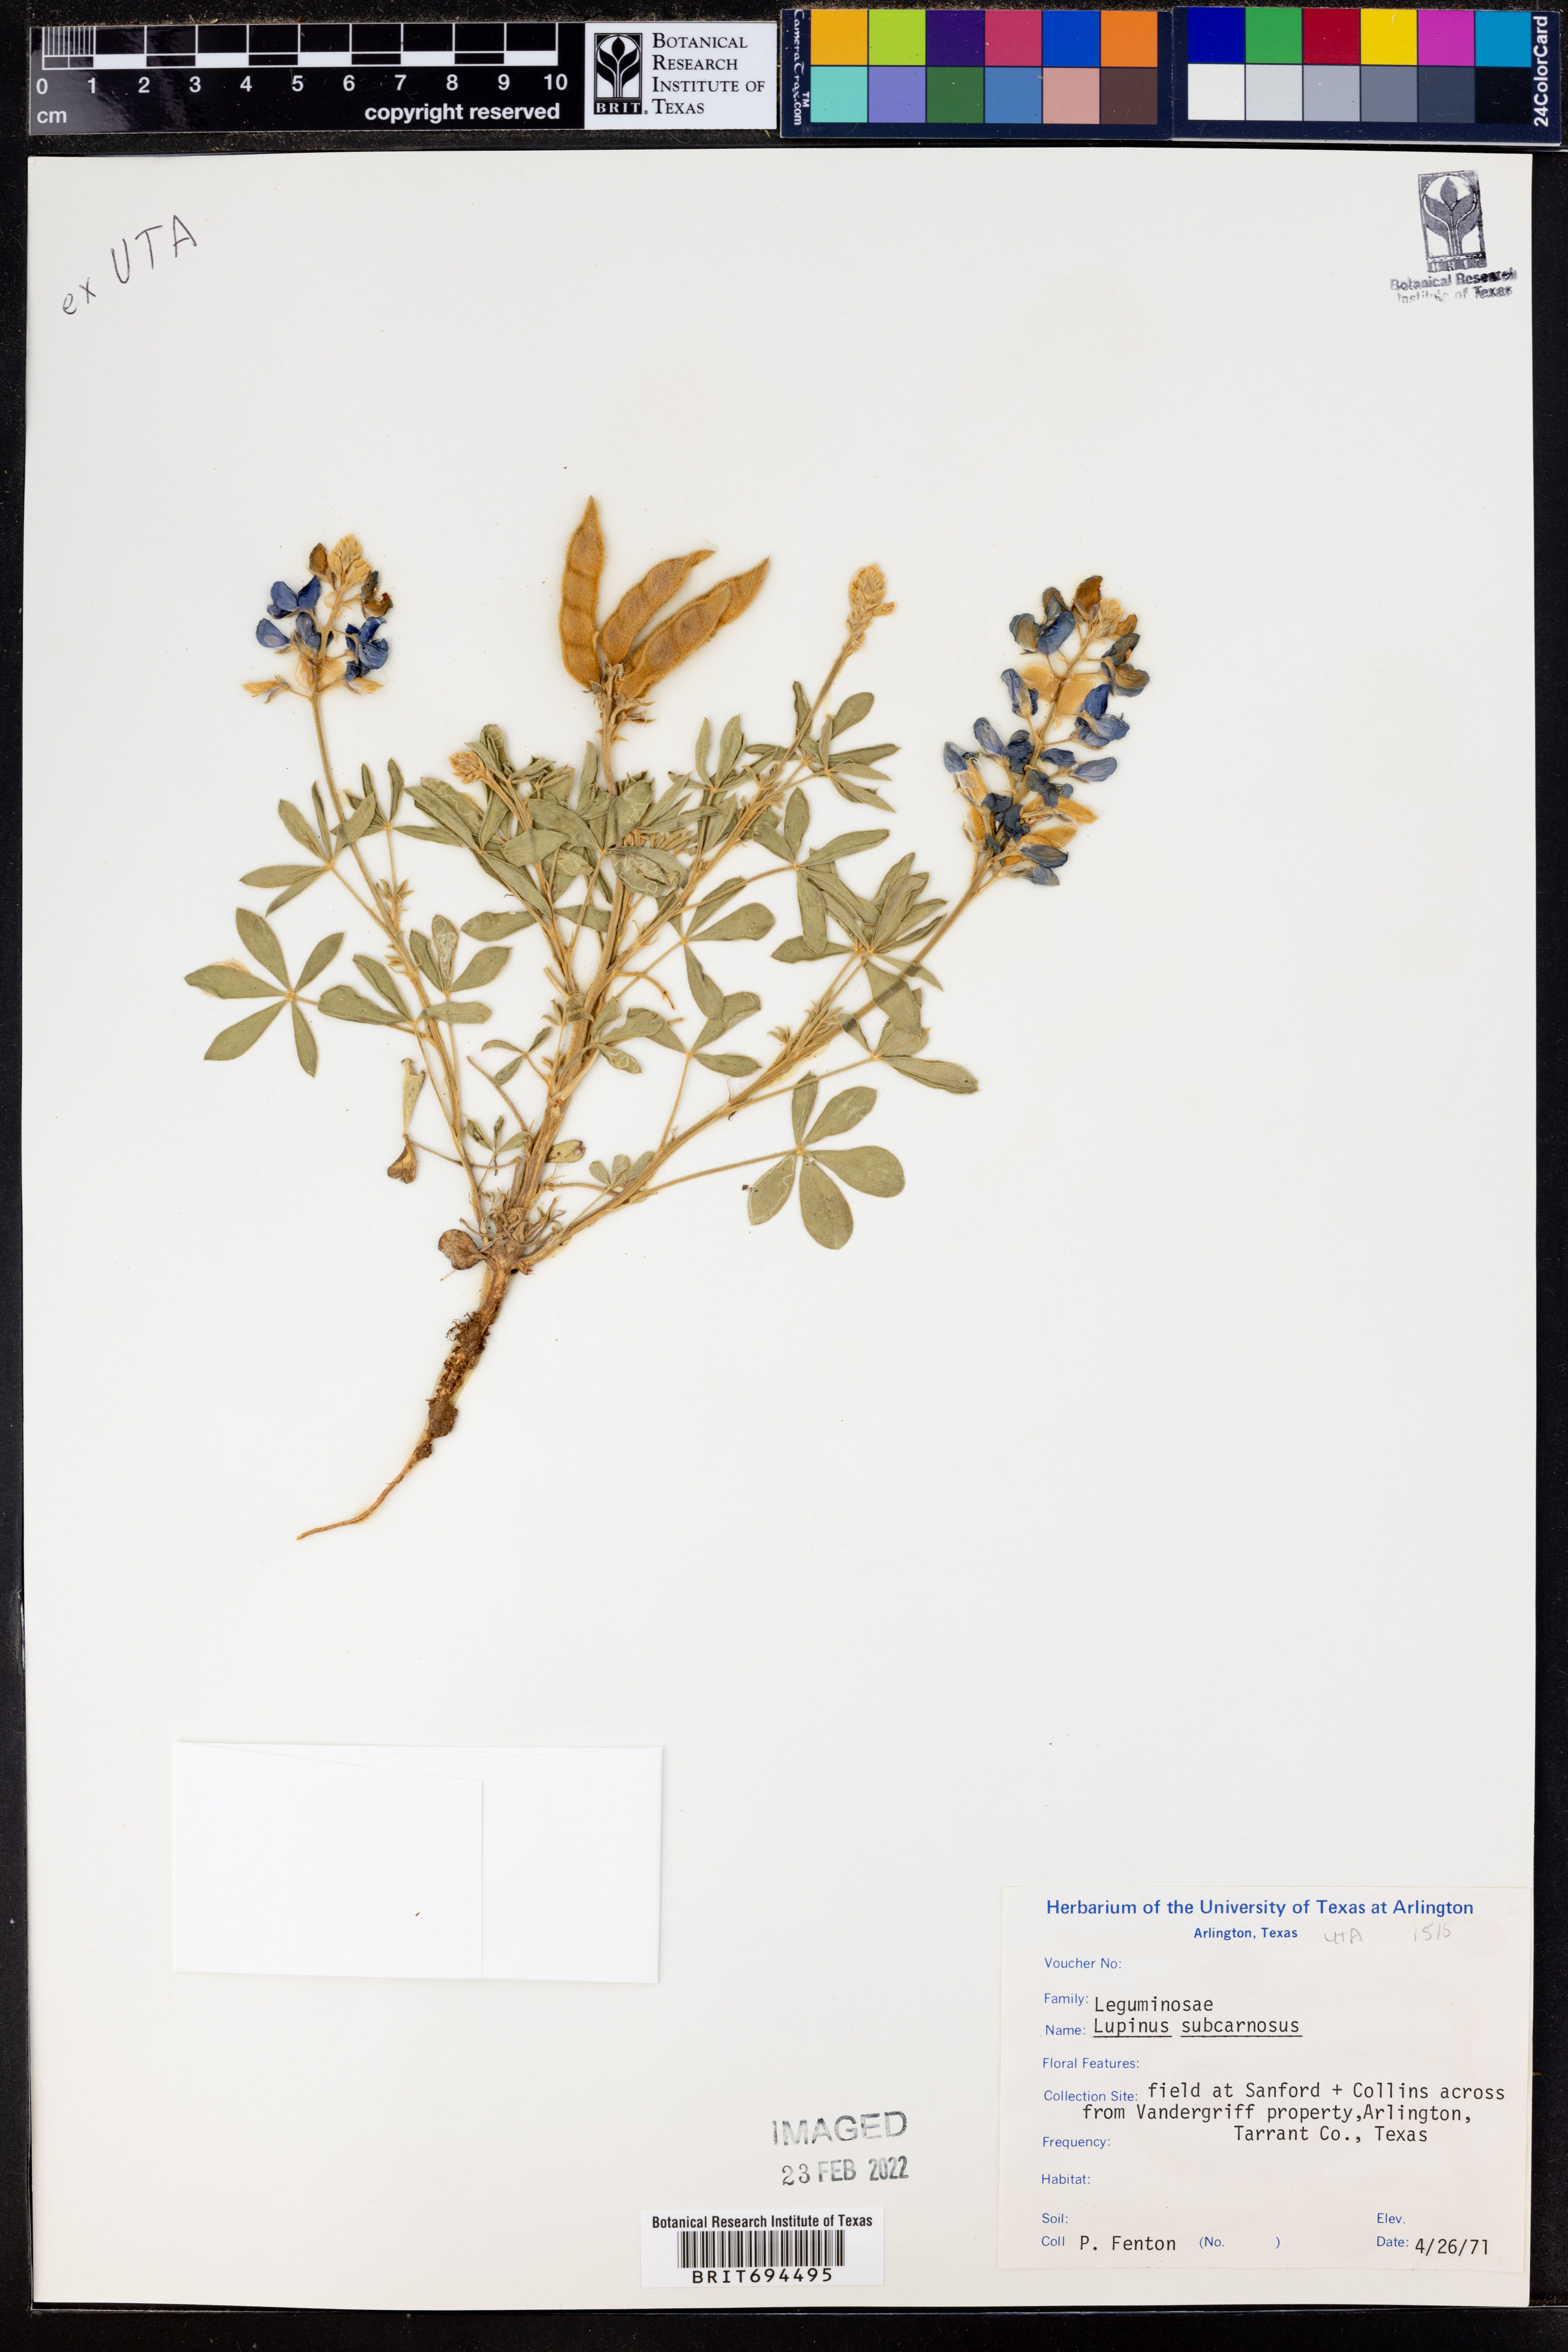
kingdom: Plantae
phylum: Tracheophyta
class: Magnoliopsida
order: Fabales
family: Fabaceae
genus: Lupinus
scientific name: Lupinus subcarnosus
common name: Texas bluebonnet
